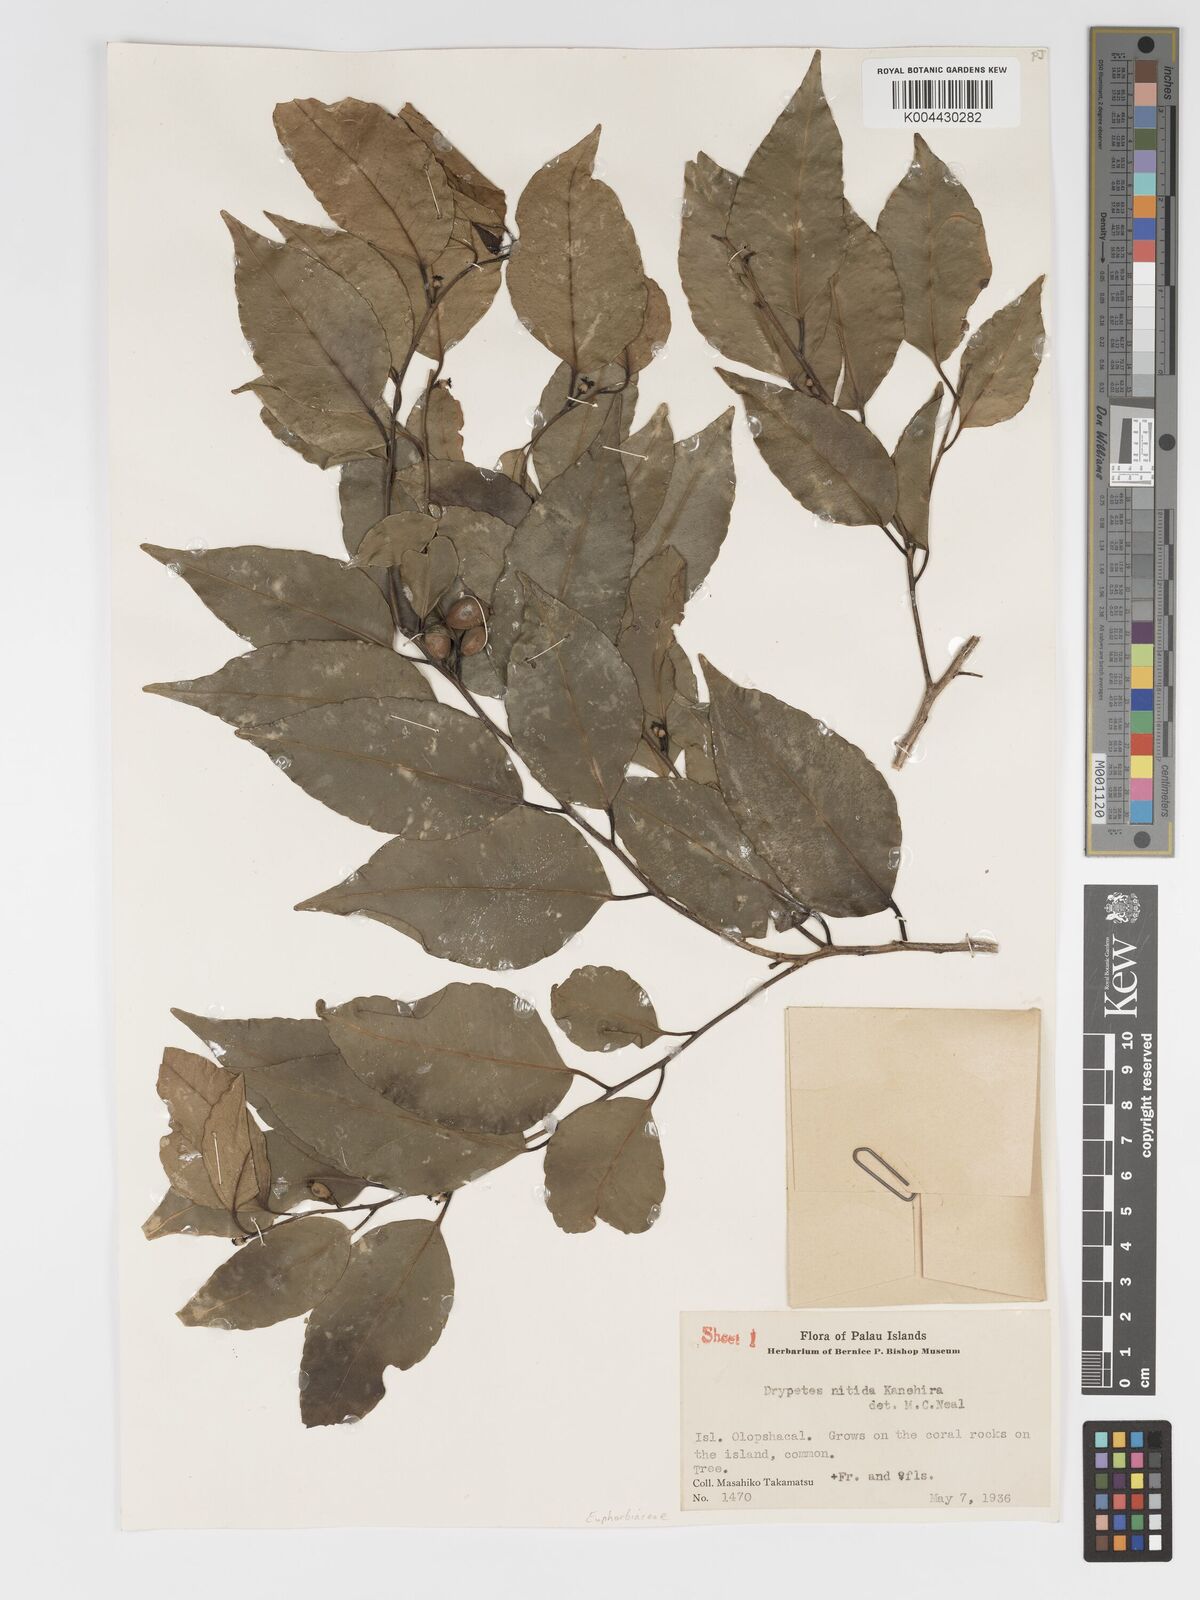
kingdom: Plantae
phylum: Tracheophyta
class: Magnoliopsida
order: Malpighiales
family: Putranjivaceae
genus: Drypetes
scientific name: Drypetes nitida
